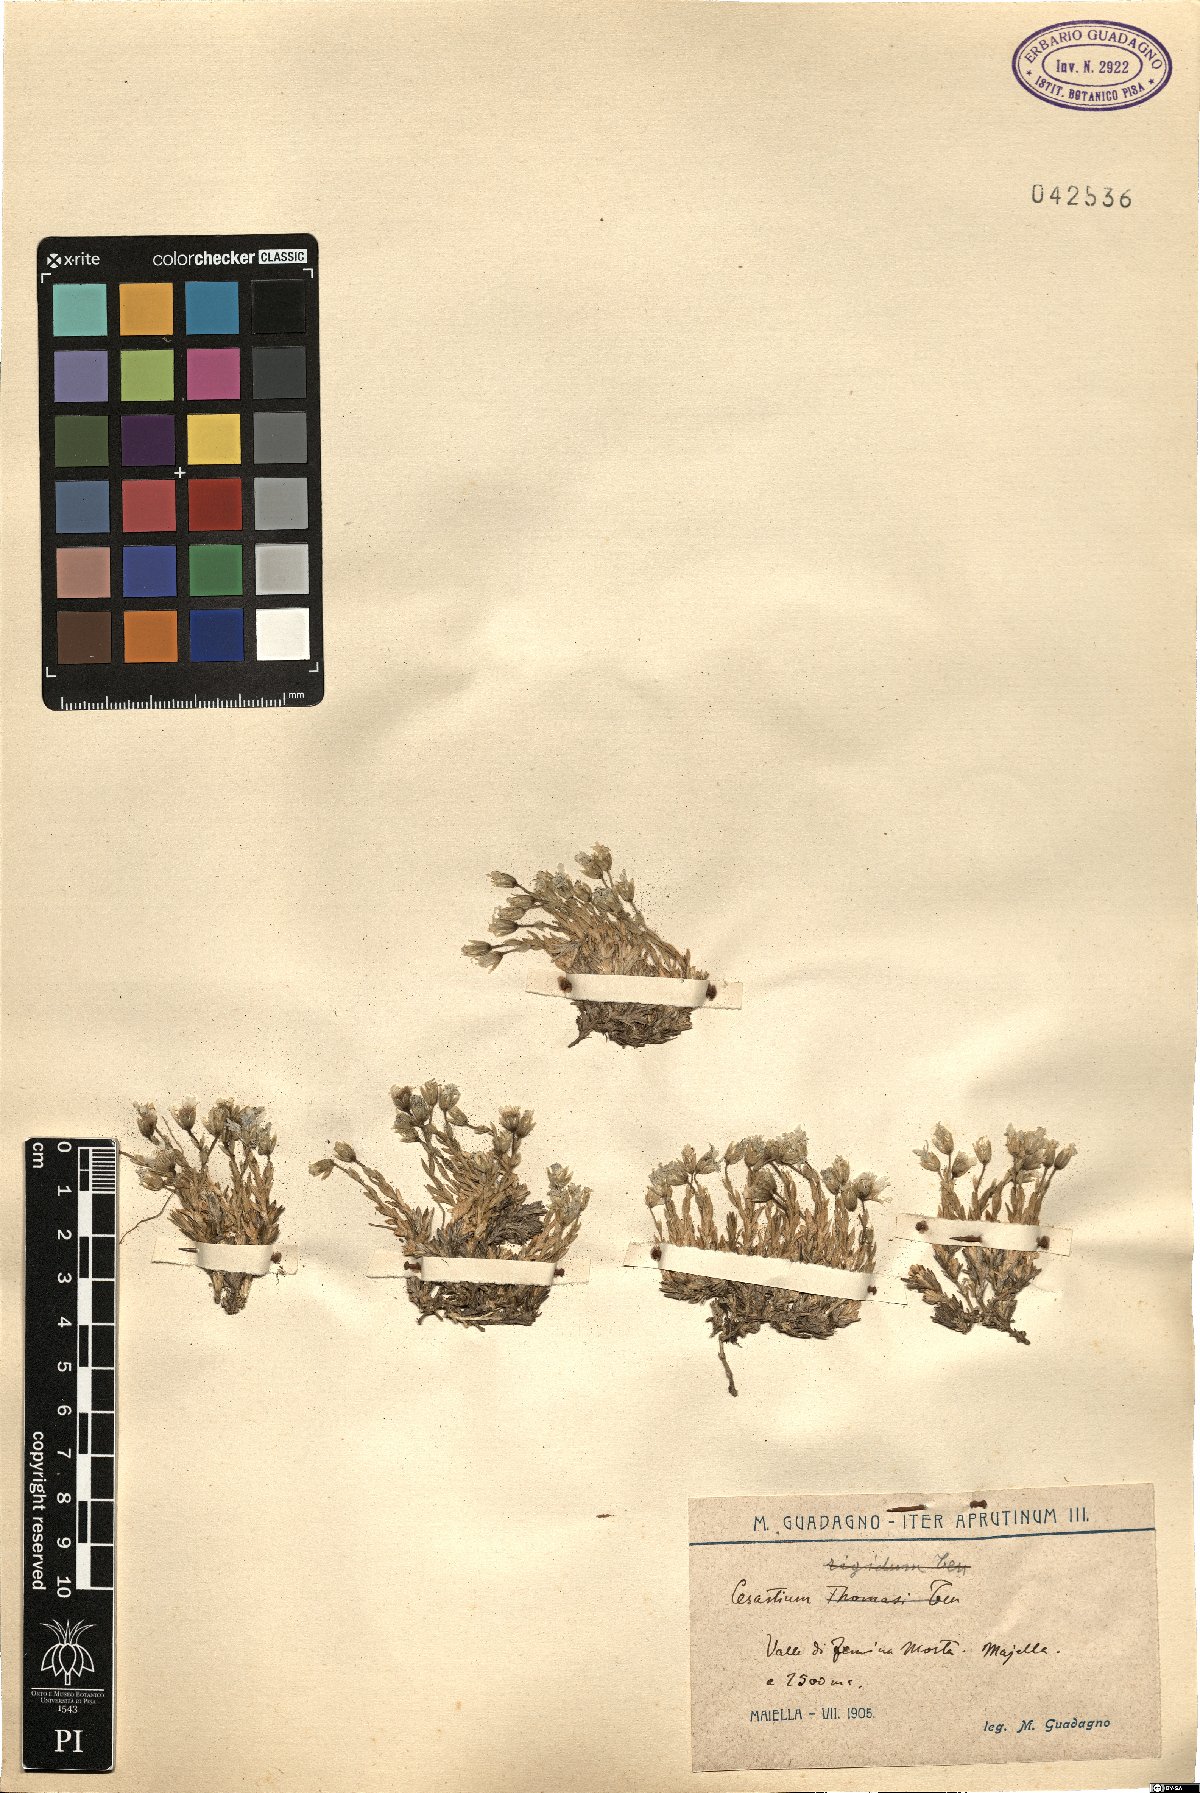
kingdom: Plantae
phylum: Tracheophyta
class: Magnoliopsida
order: Caryophyllales
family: Caryophyllaceae
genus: Cerastium
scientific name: Cerastium
